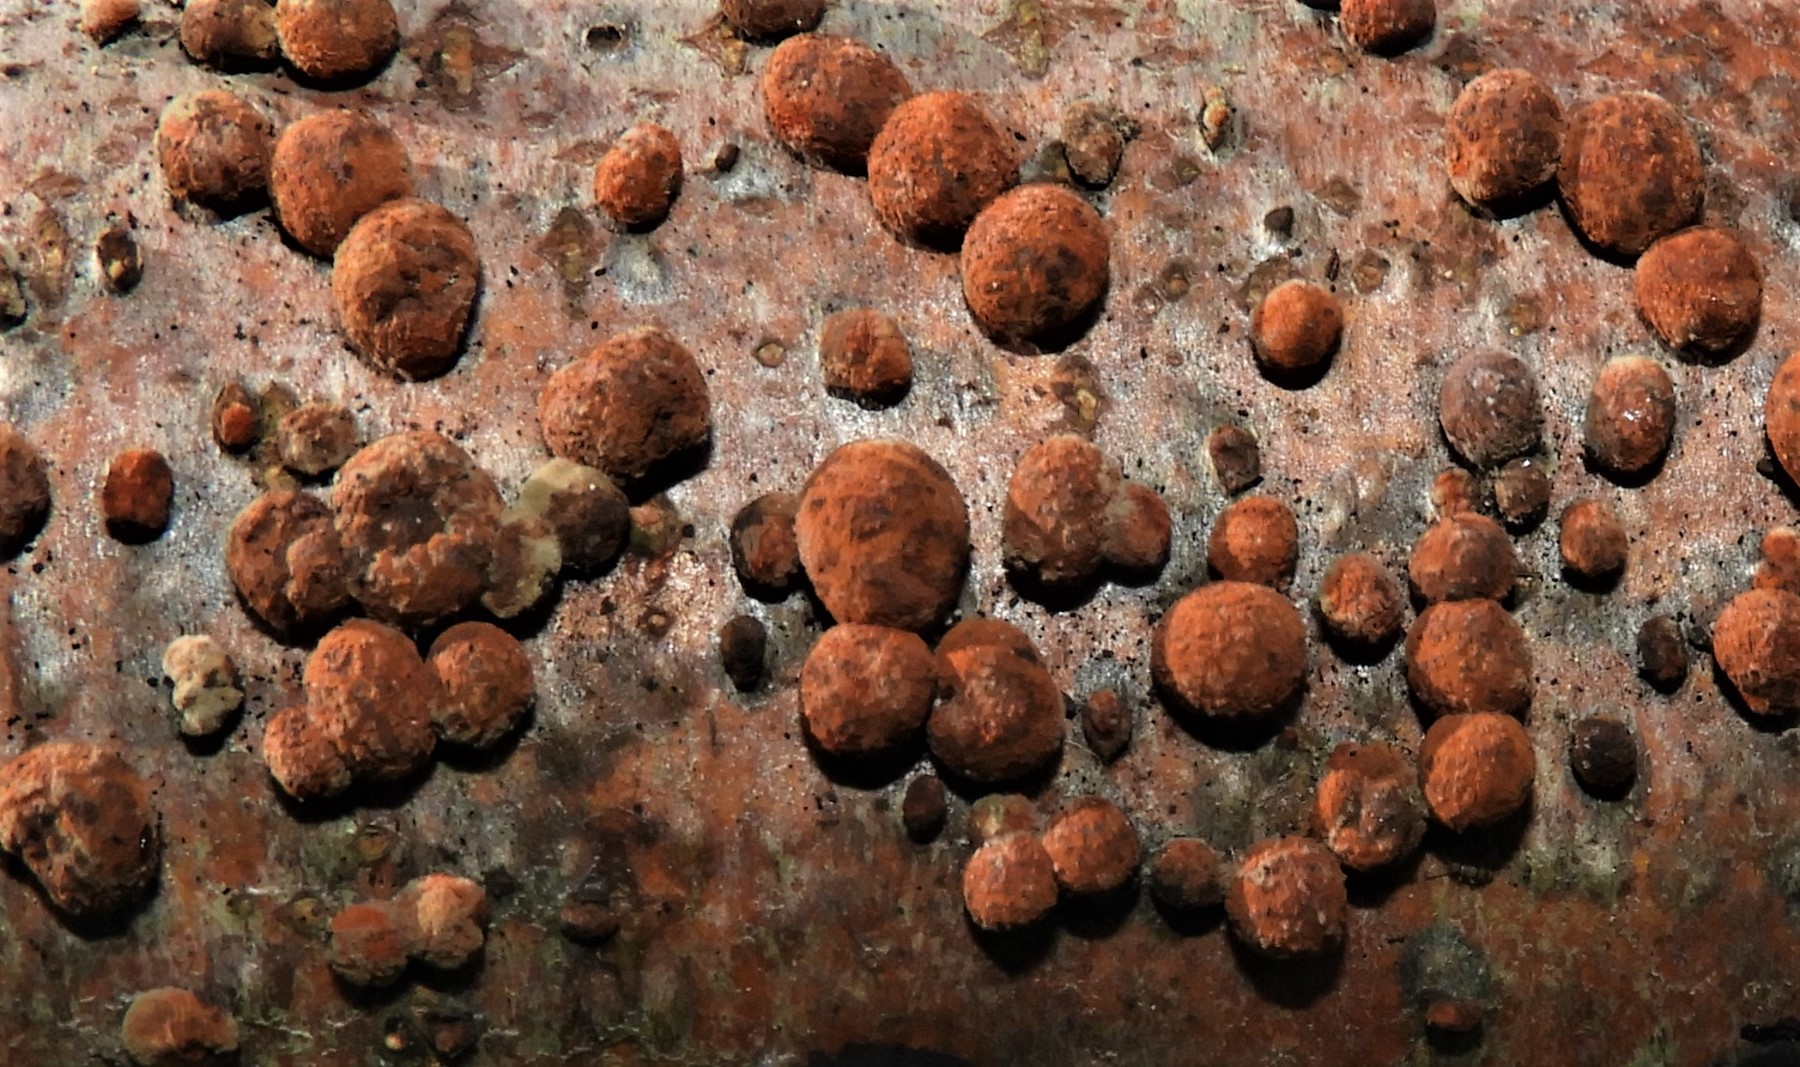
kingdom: Fungi
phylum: Ascomycota
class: Sordariomycetes
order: Xylariales
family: Hypoxylaceae
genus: Hypoxylon
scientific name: Hypoxylon fragiforme
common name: kuljordbær
